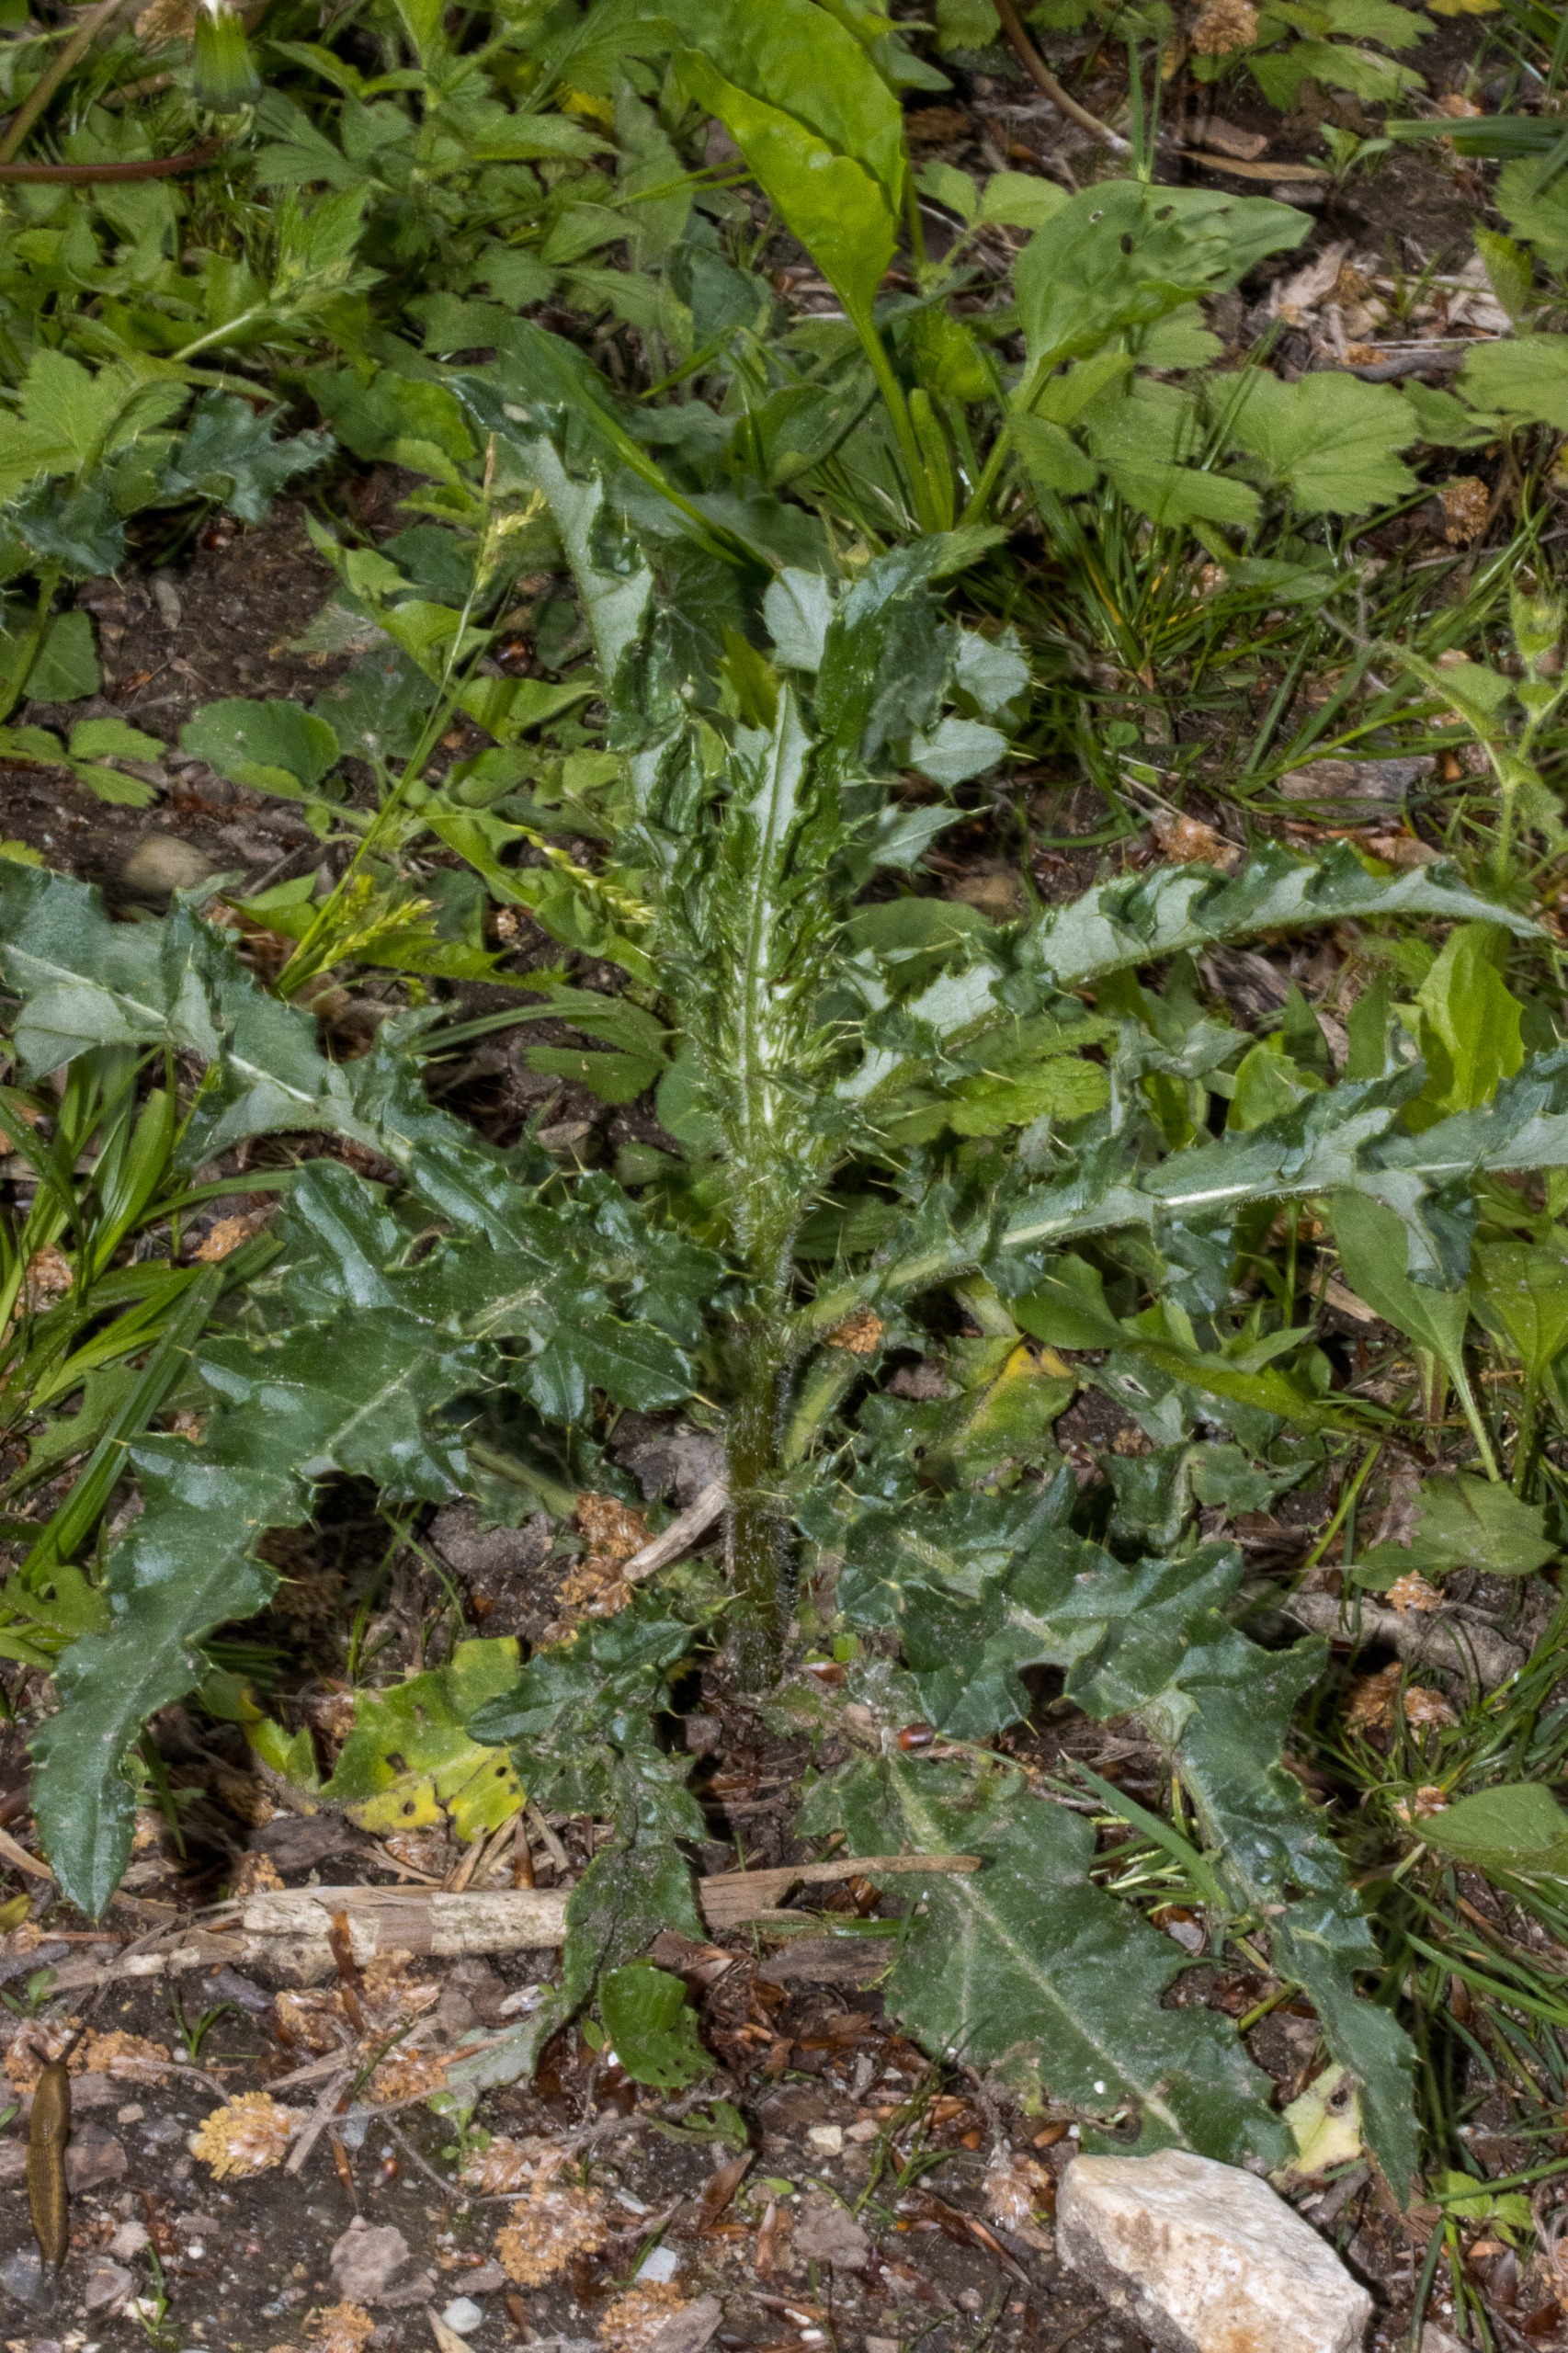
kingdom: Plantae
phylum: Tracheophyta
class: Magnoliopsida
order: Asterales
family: Asteraceae
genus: Cirsium
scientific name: Cirsium arvense
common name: Ager-tidsel
